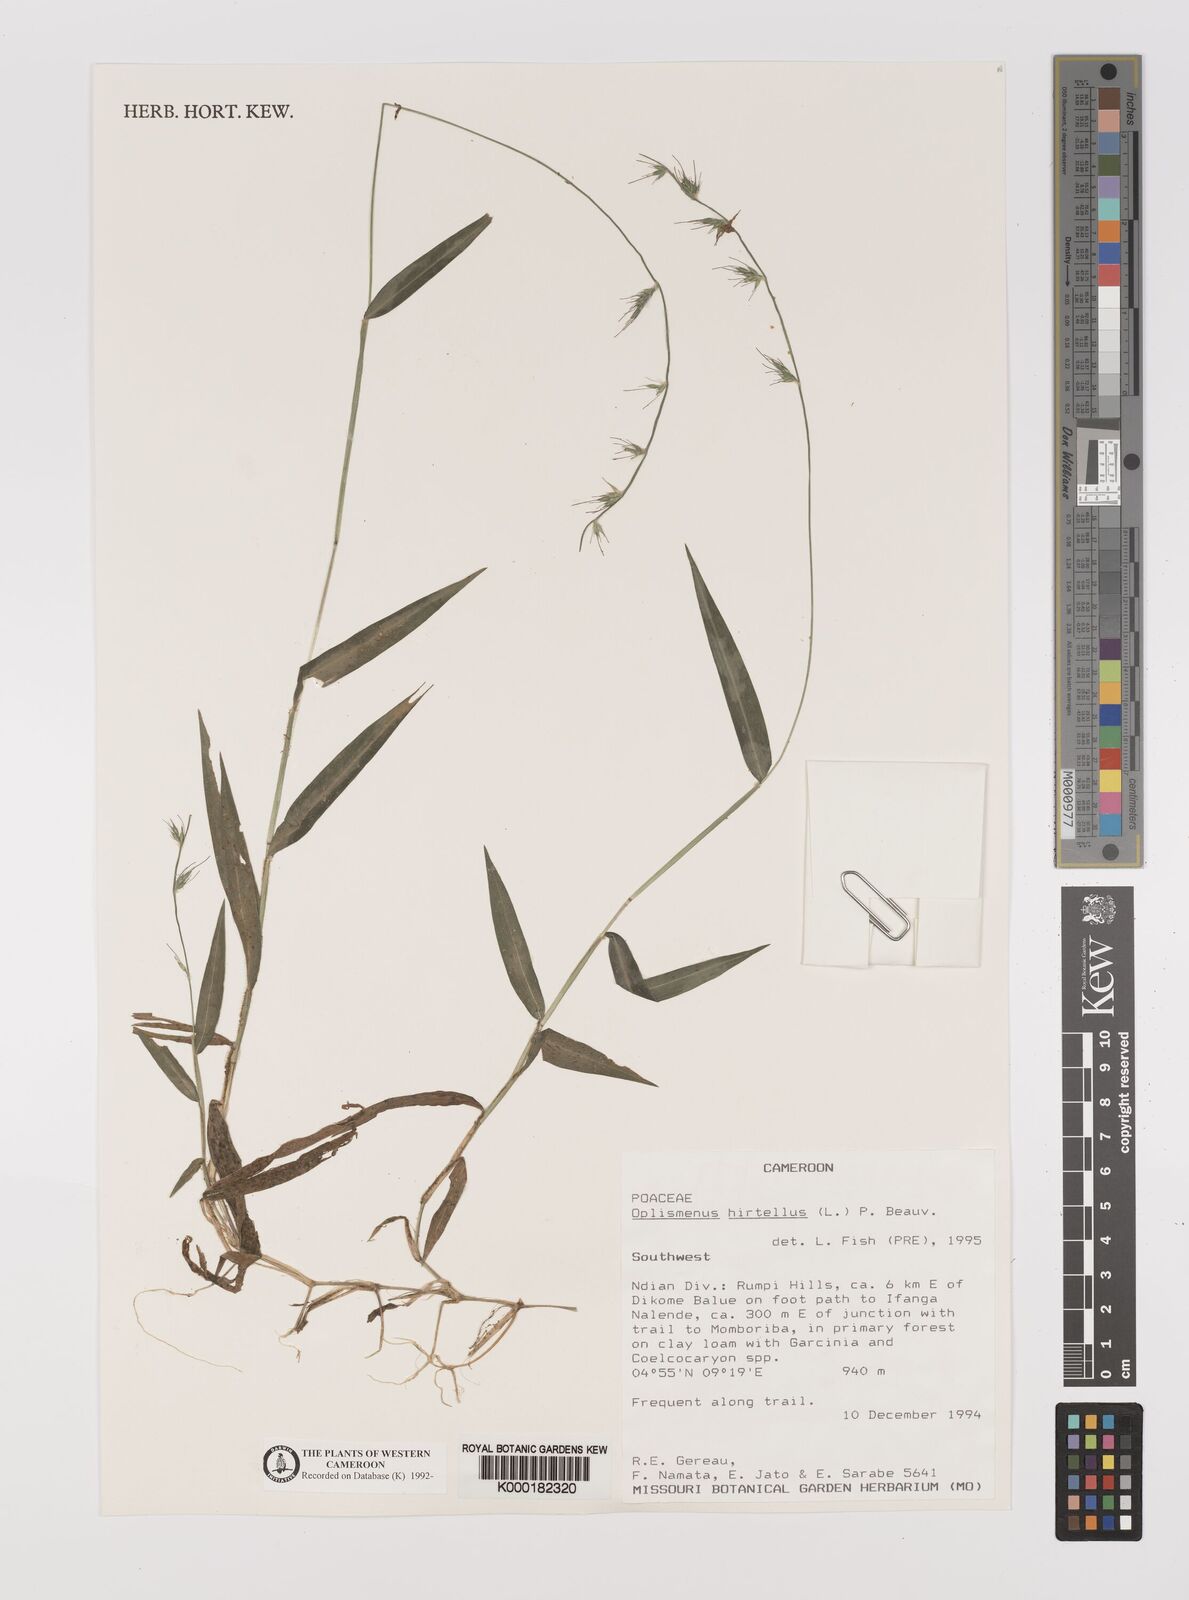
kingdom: Plantae
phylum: Tracheophyta
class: Liliopsida
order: Poales
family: Poaceae
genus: Oplismenus
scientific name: Oplismenus hirtellus
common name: Basketgrass
